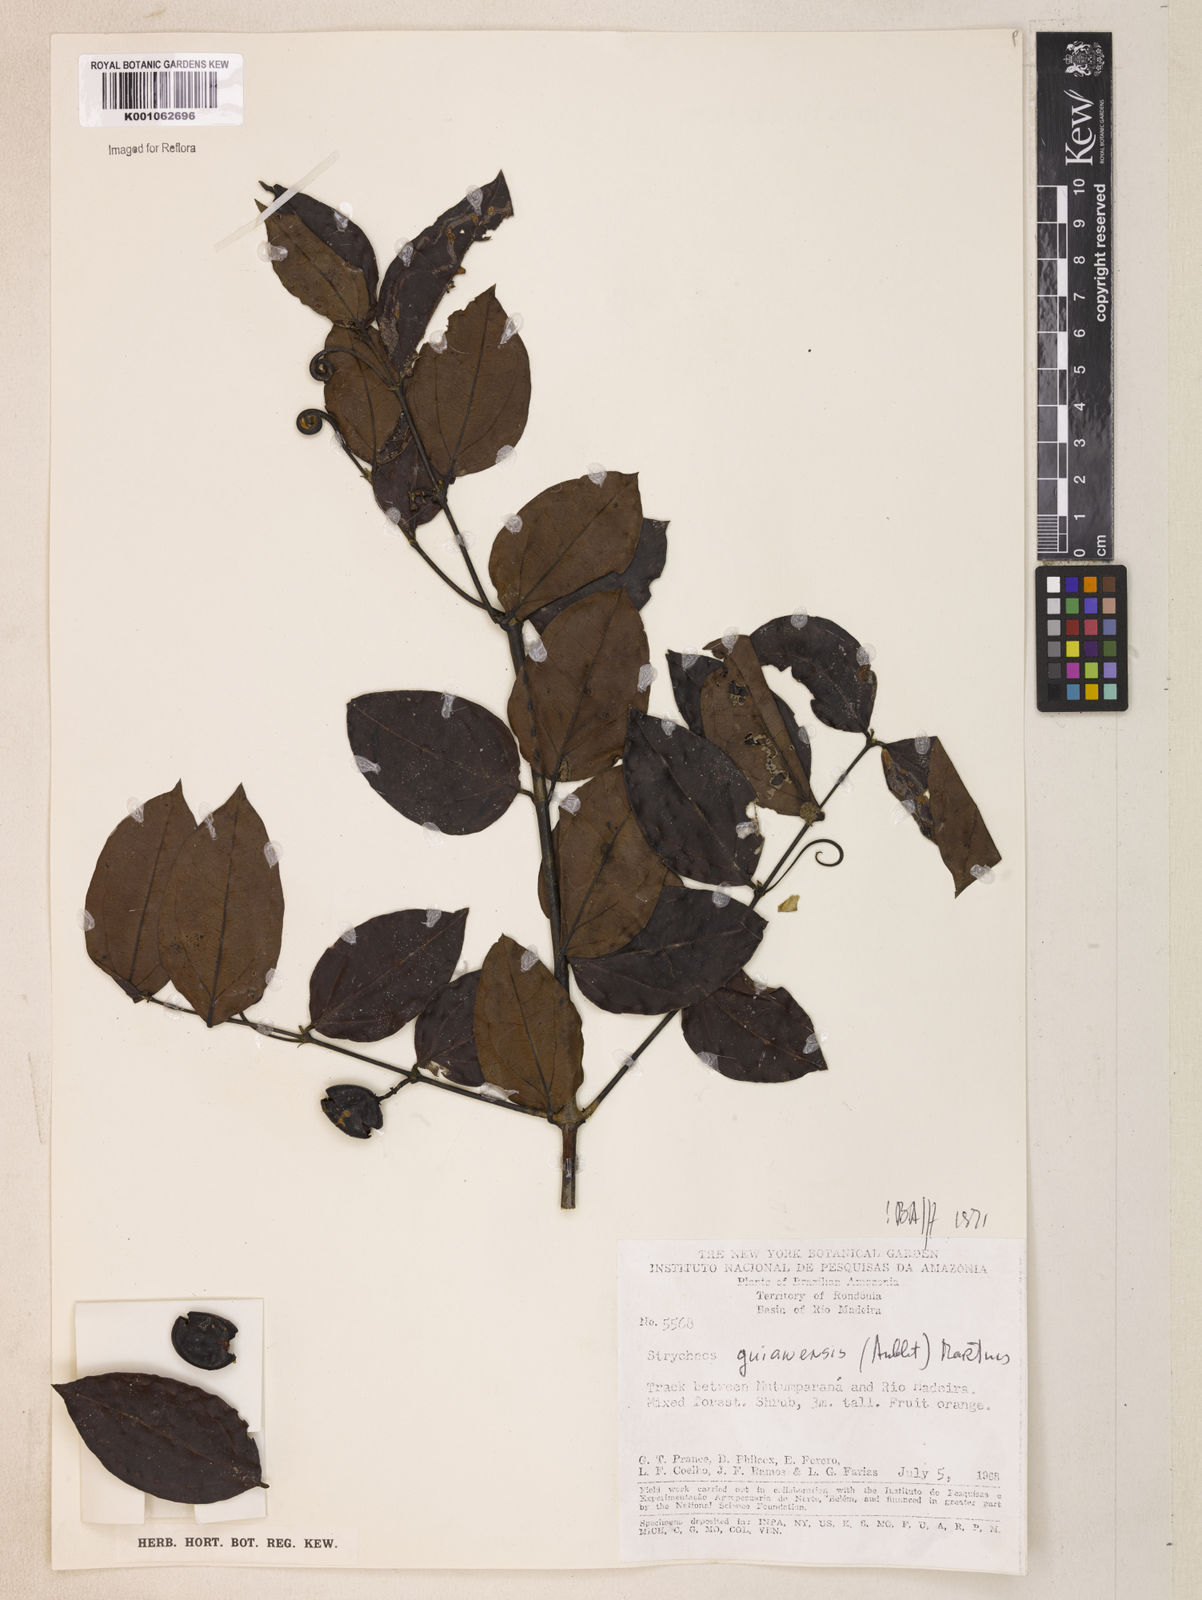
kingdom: Plantae
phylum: Tracheophyta
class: Magnoliopsida
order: Gentianales
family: Loganiaceae
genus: Strychnos
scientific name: Strychnos guianensis
